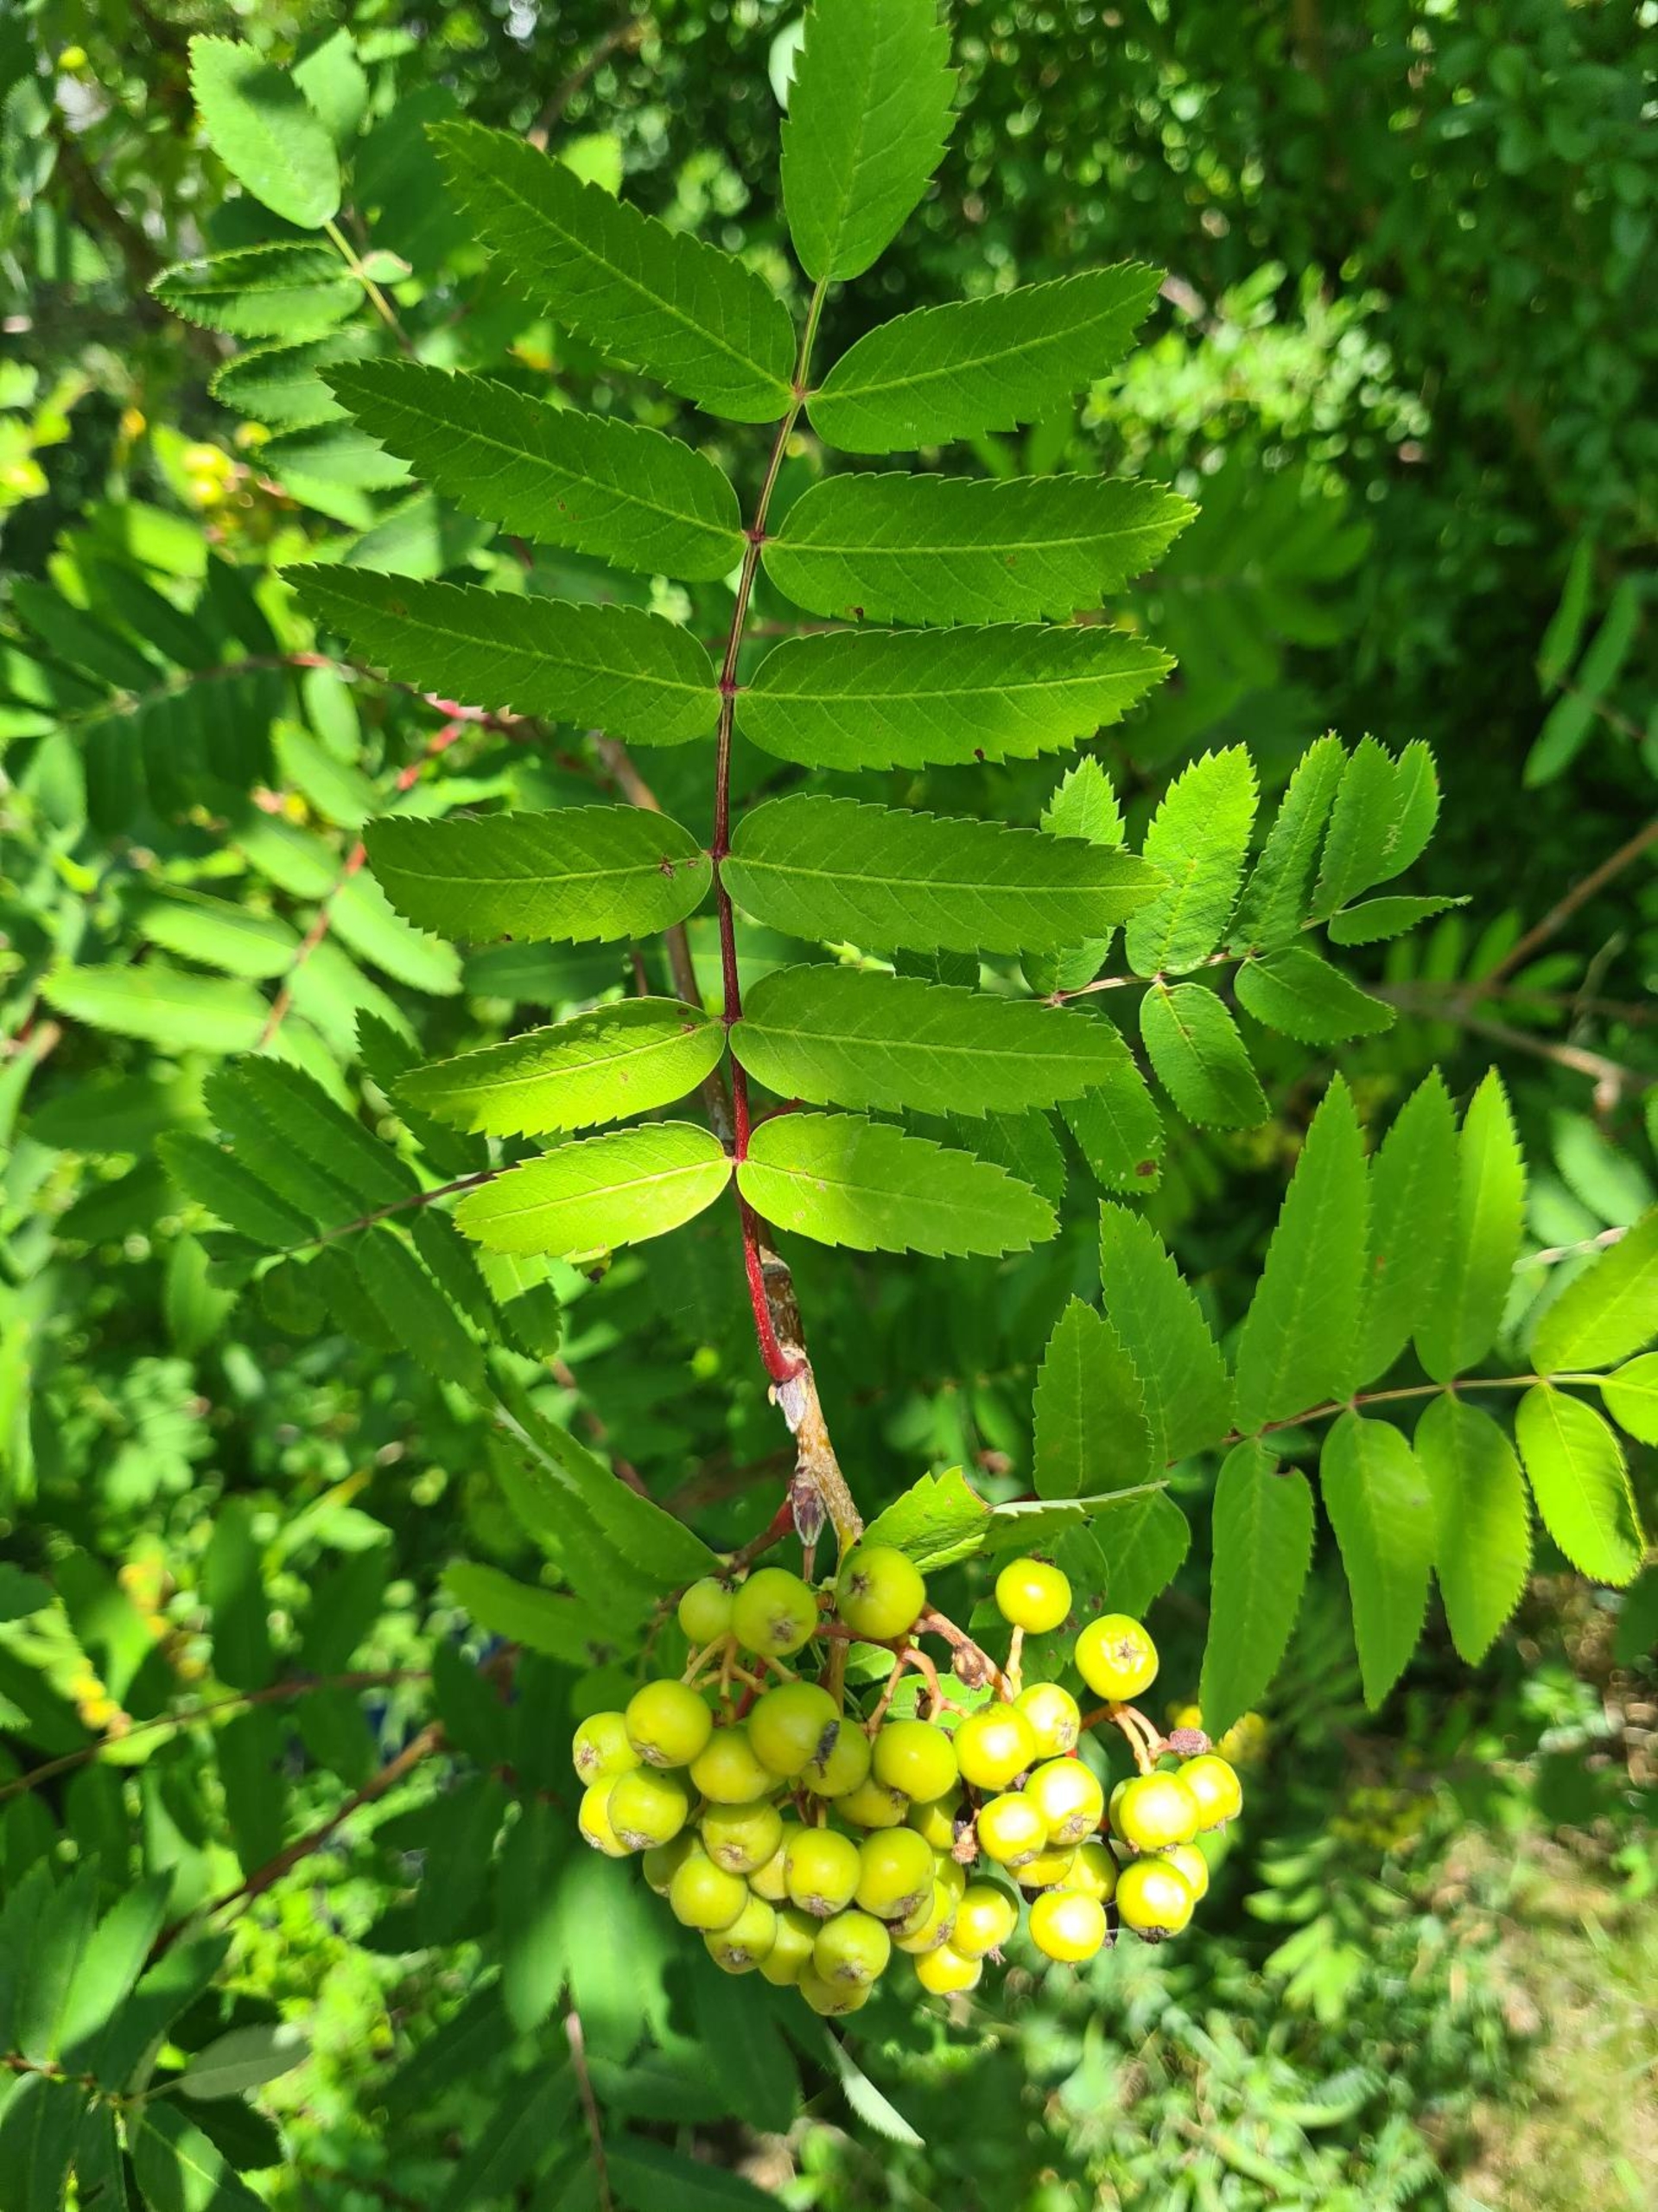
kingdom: Plantae
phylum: Tracheophyta
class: Magnoliopsida
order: Rosales
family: Rosaceae
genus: Sorbus
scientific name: Sorbus aucuparia
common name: Almindelig røn
